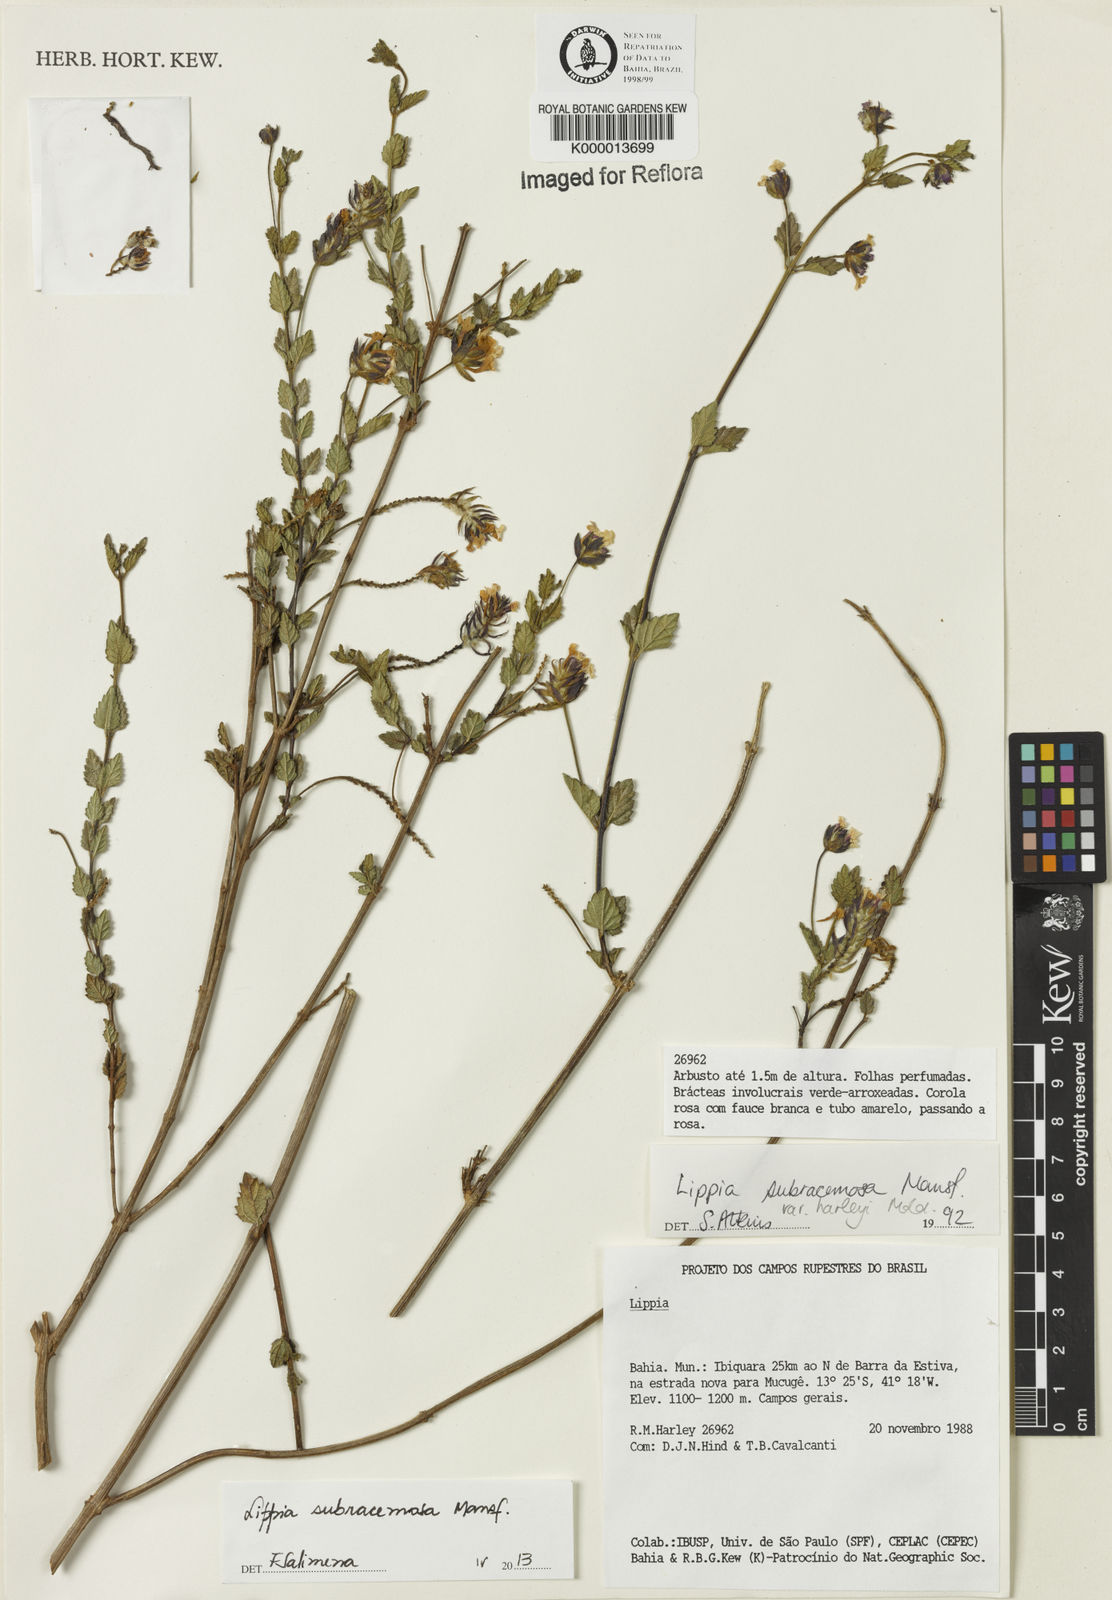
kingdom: Plantae
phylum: Tracheophyta
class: Magnoliopsida
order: Lamiales
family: Verbenaceae
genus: Lippia
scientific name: Lippia deltata
